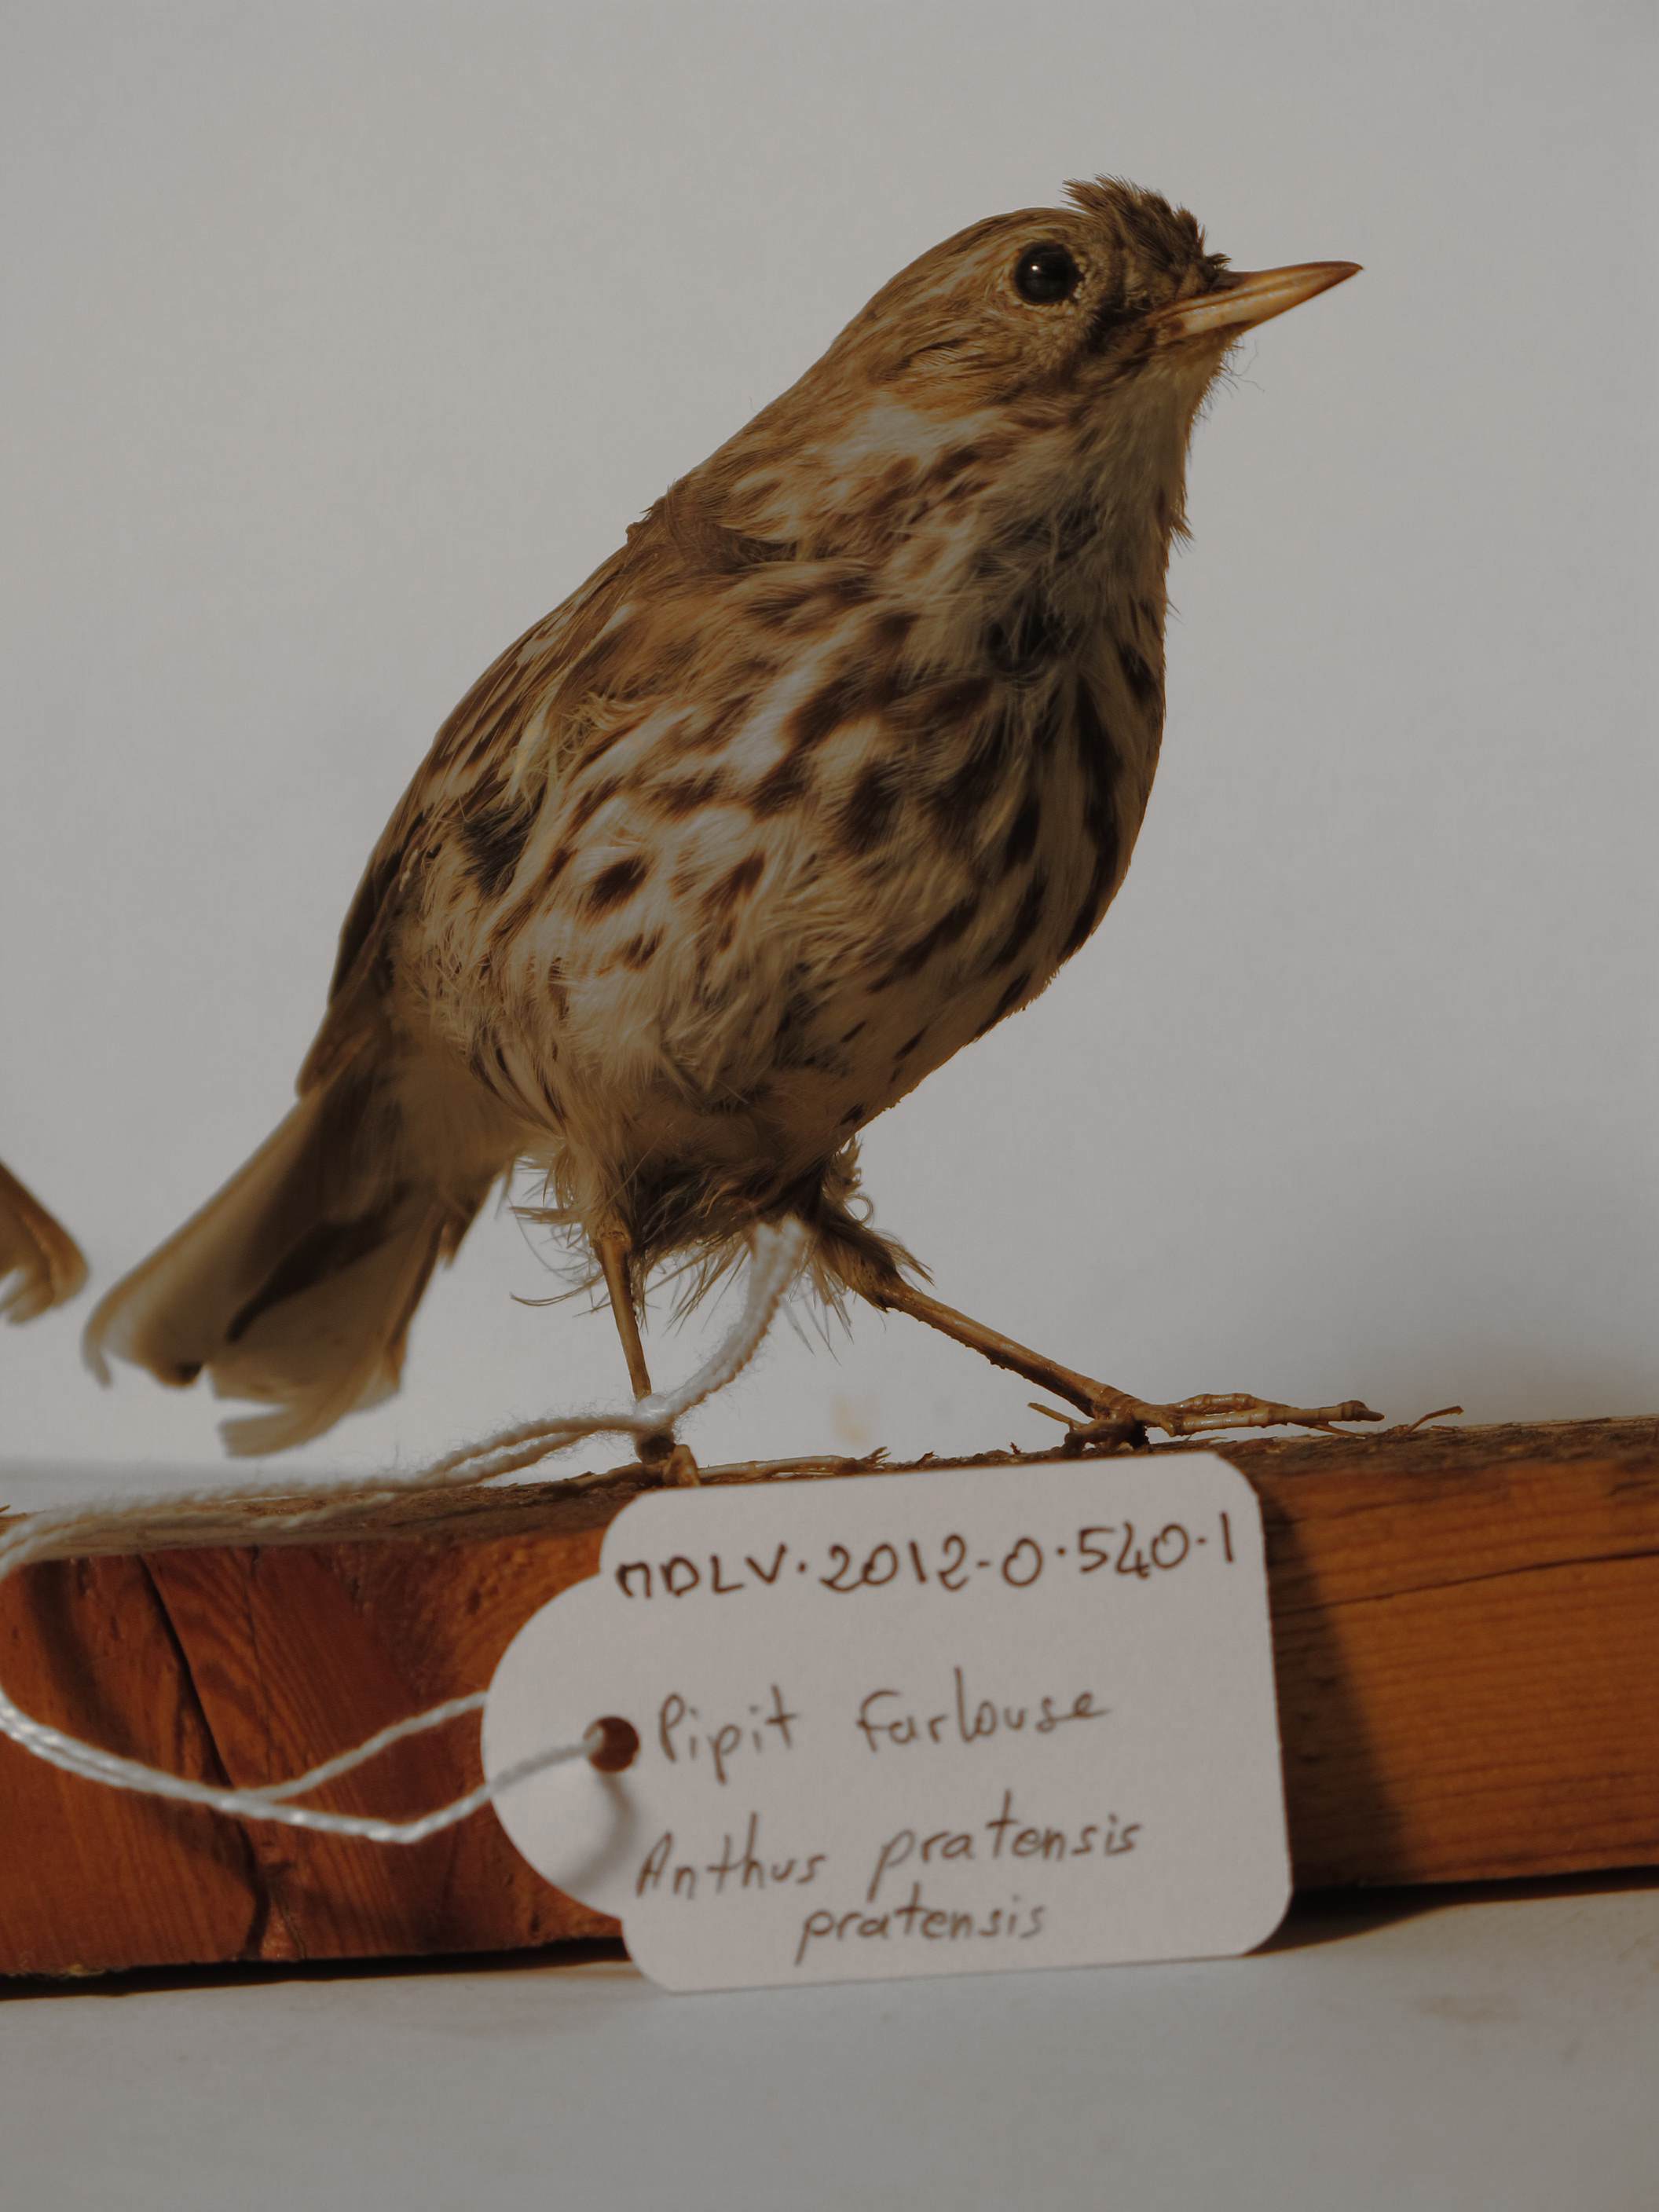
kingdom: Animalia
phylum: Chordata
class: Aves
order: Passeriformes
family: Motacillidae
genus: Anthus
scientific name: Anthus pratensis
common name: Meadow Pipit
